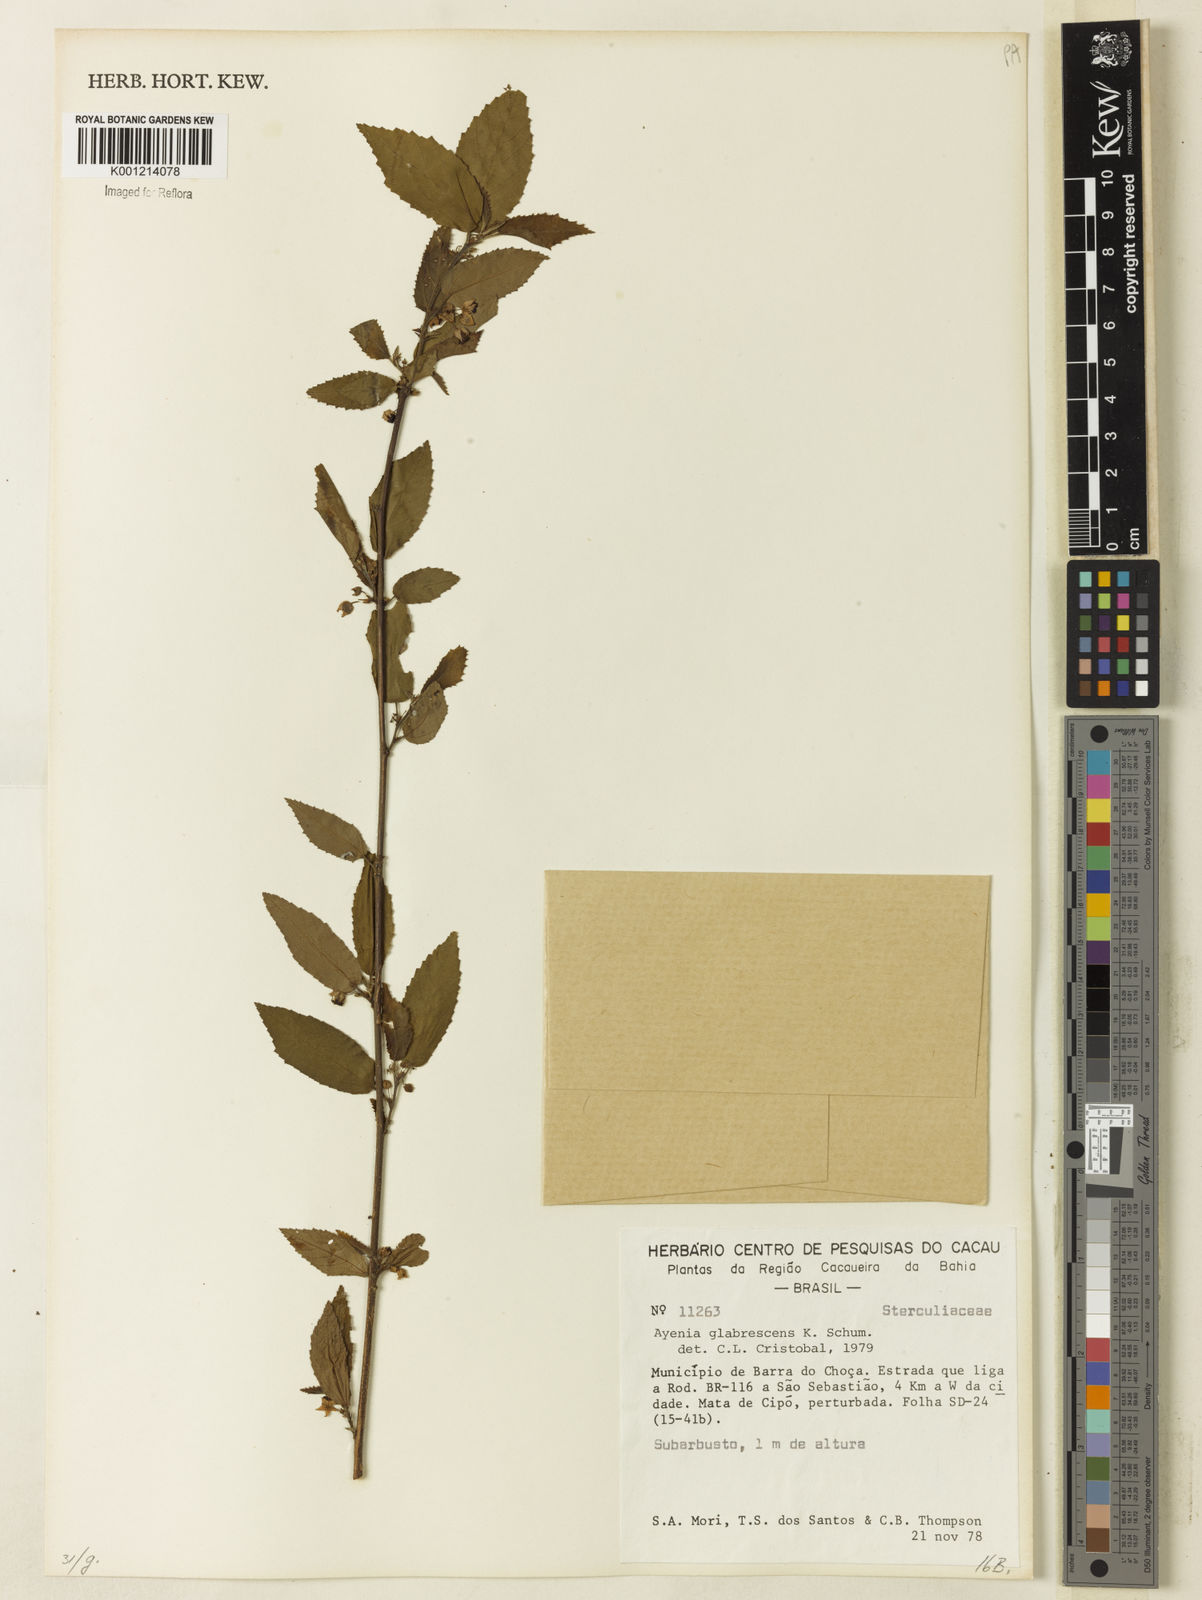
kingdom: Plantae
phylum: Tracheophyta
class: Magnoliopsida
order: Malvales
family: Malvaceae
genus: Ayenia
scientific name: Ayenia glabrescens
